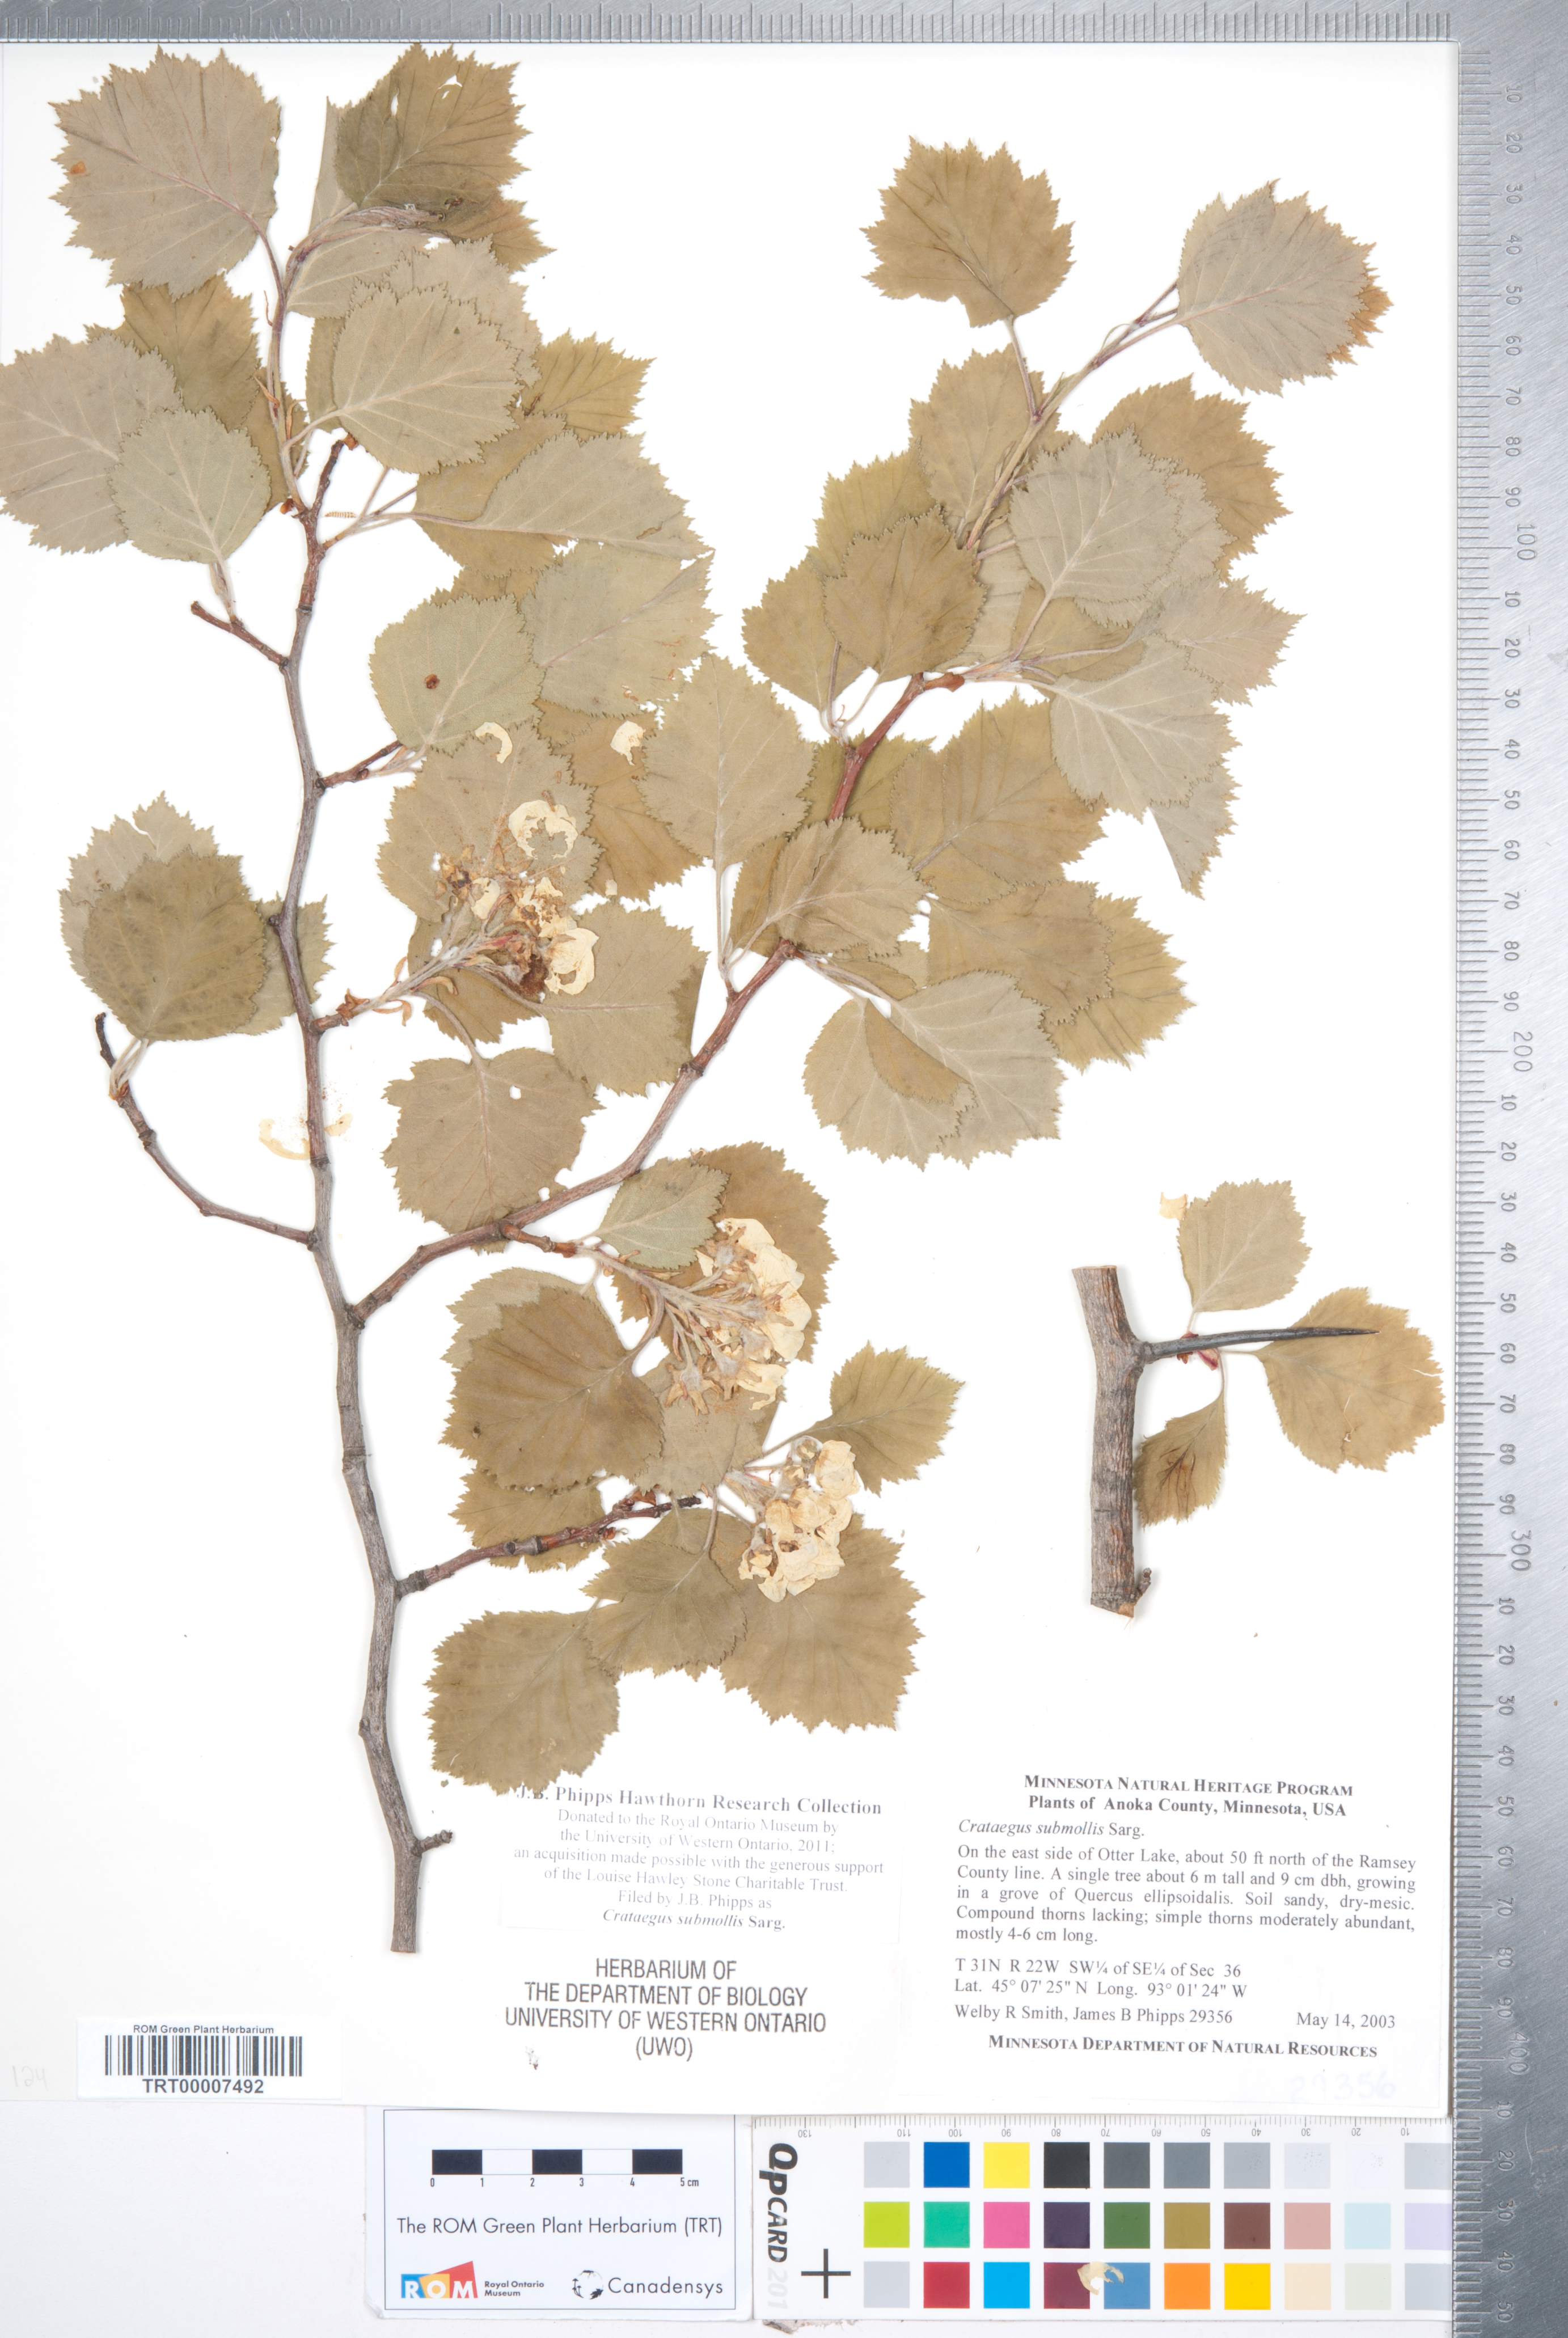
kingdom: Plantae
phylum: Tracheophyta
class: Magnoliopsida
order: Rosales
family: Rosaceae
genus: Crataegus
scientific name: Crataegus submollis
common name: Hairy cockspurthorn
